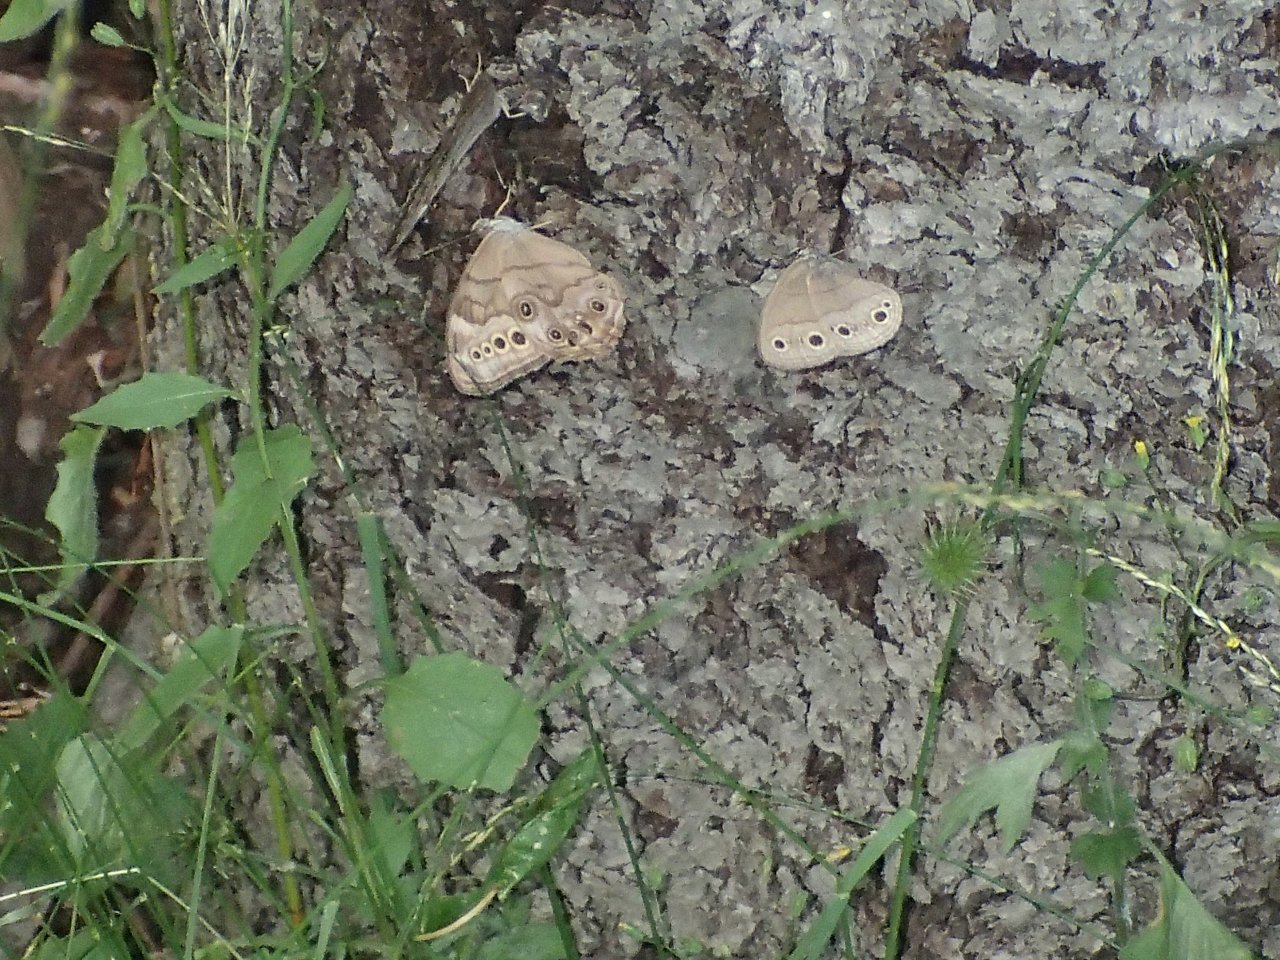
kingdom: Animalia
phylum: Arthropoda
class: Insecta
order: Lepidoptera
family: Nymphalidae
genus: Lethe
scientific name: Lethe anthedon
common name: Northern Pearly-Eye
